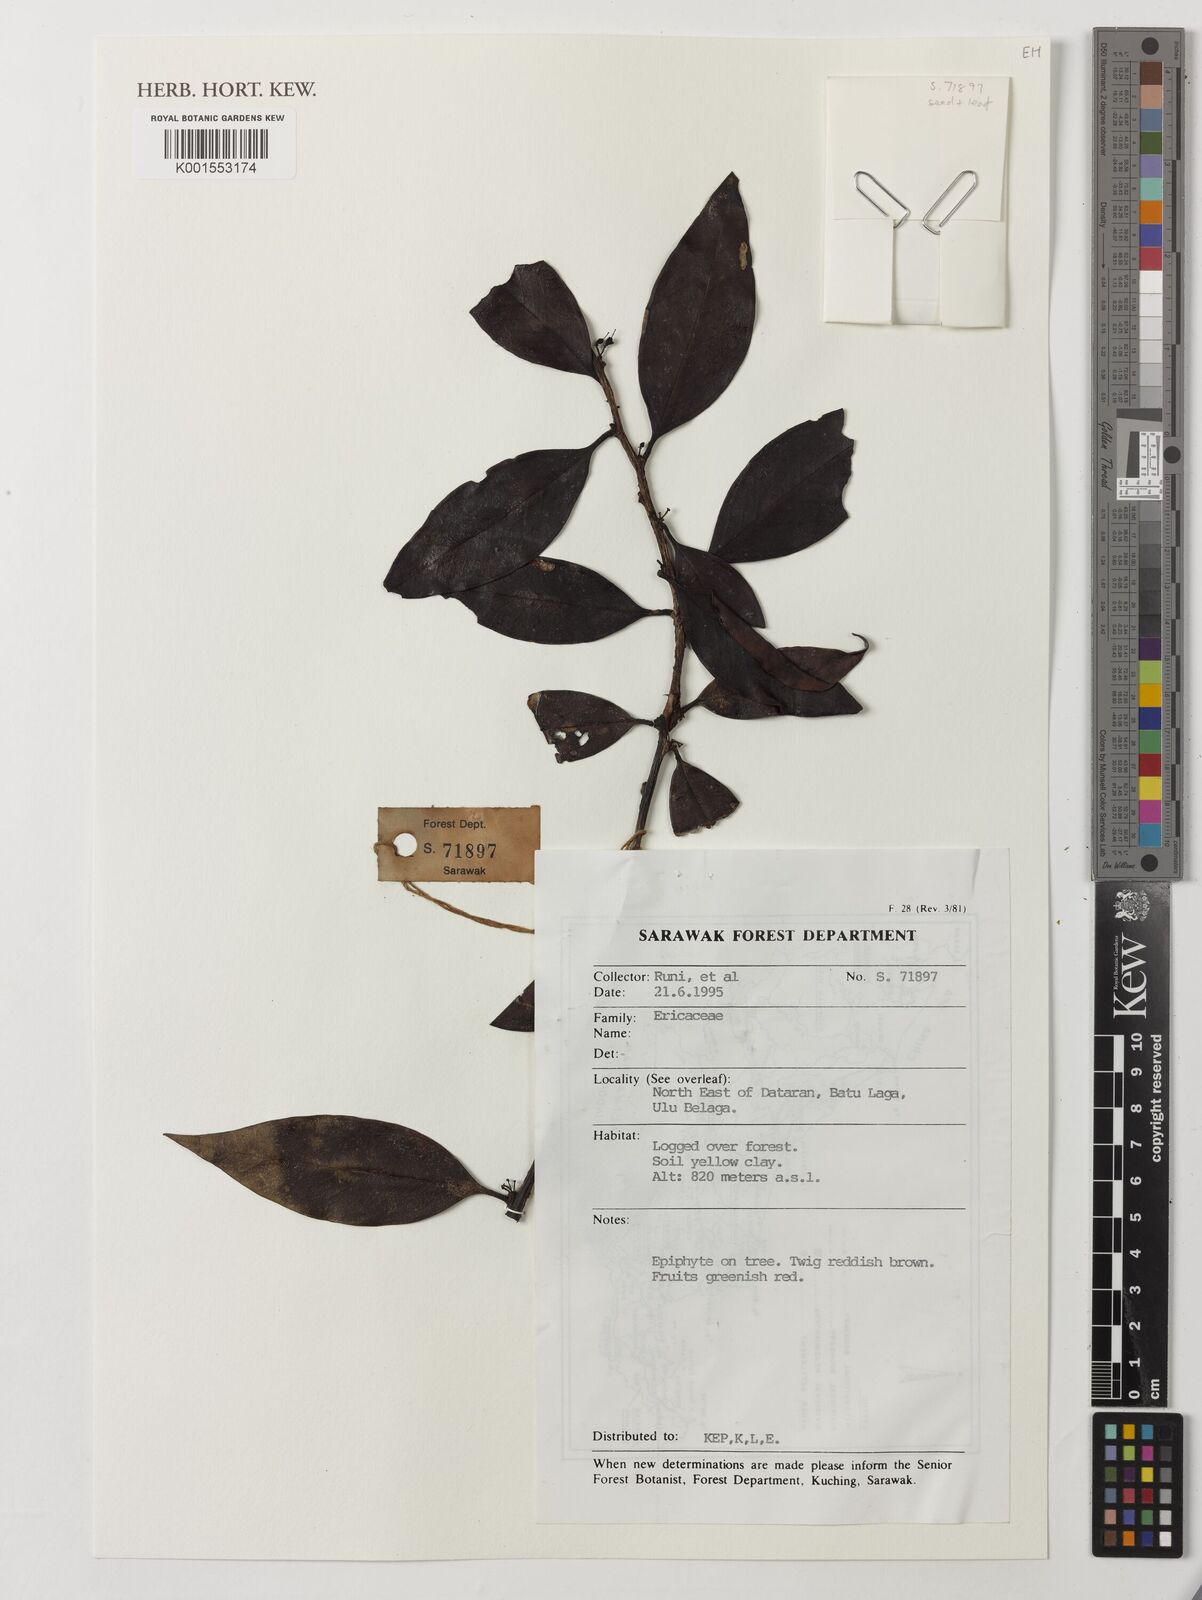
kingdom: Plantae
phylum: Tracheophyta
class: Magnoliopsida
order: Ericales
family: Ericaceae
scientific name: Ericaceae
